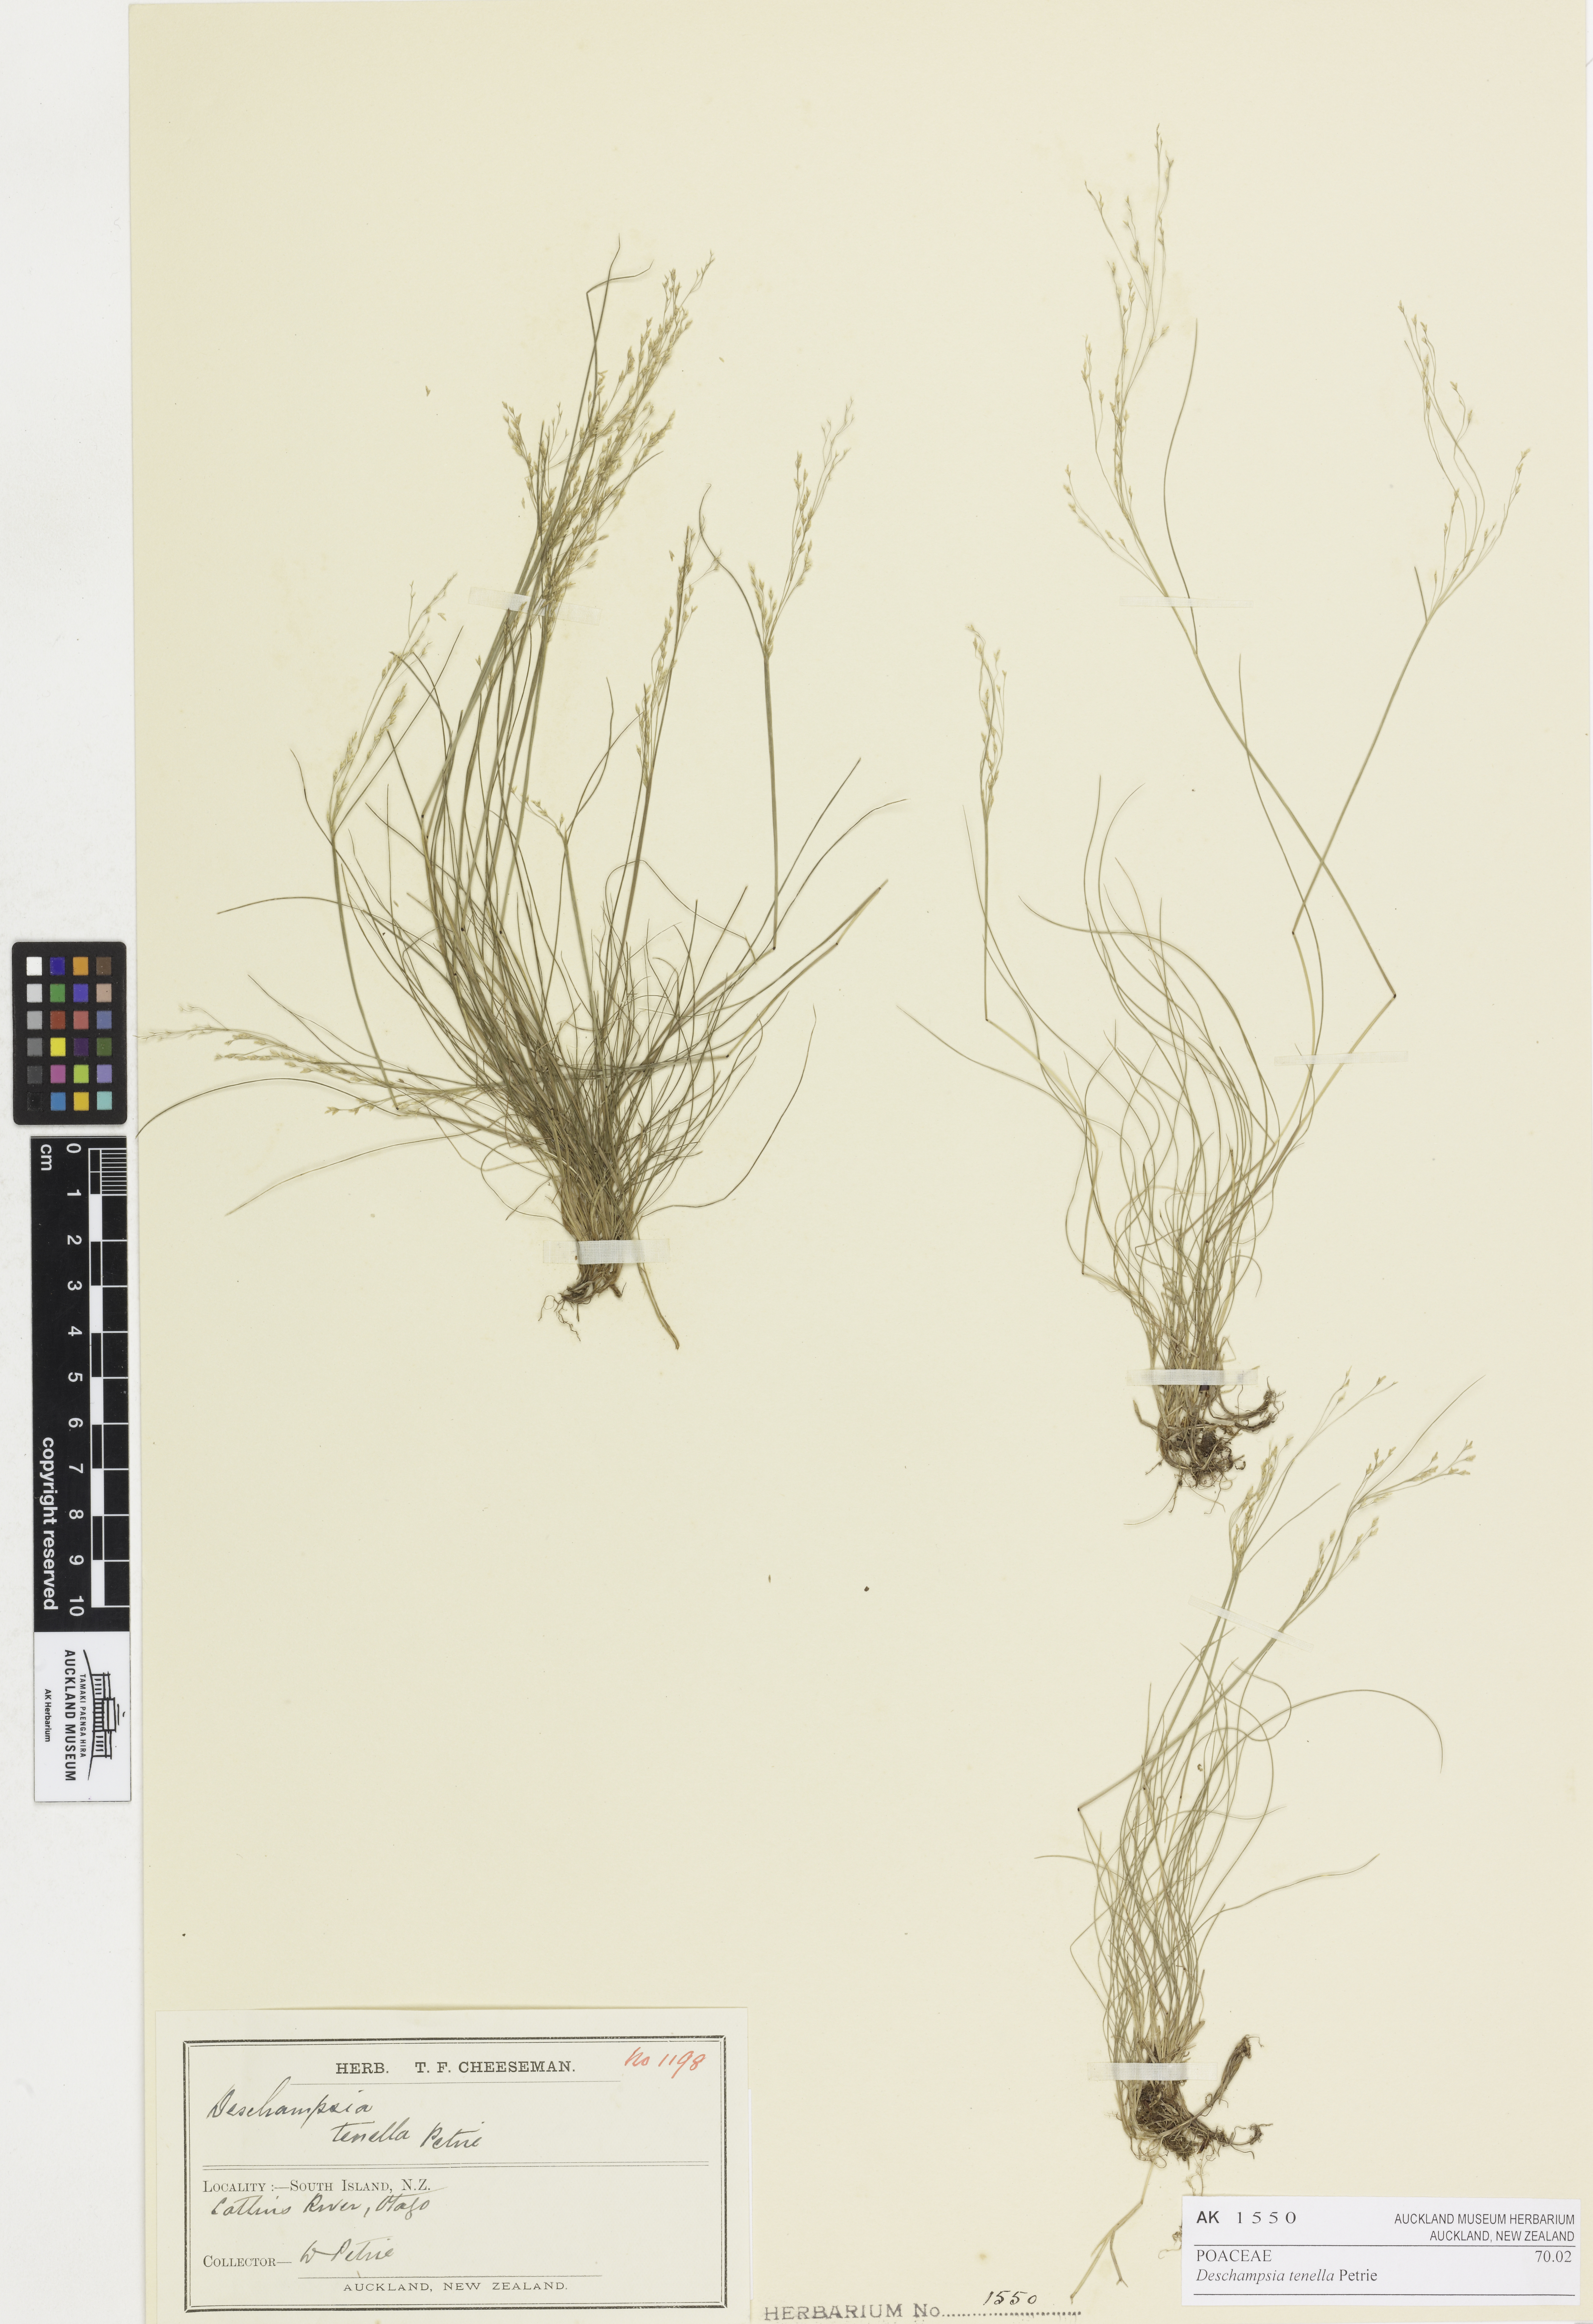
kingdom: Plantae
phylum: Tracheophyta
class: Liliopsida
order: Poales
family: Poaceae
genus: Deschampsia
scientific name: Deschampsia tenella
